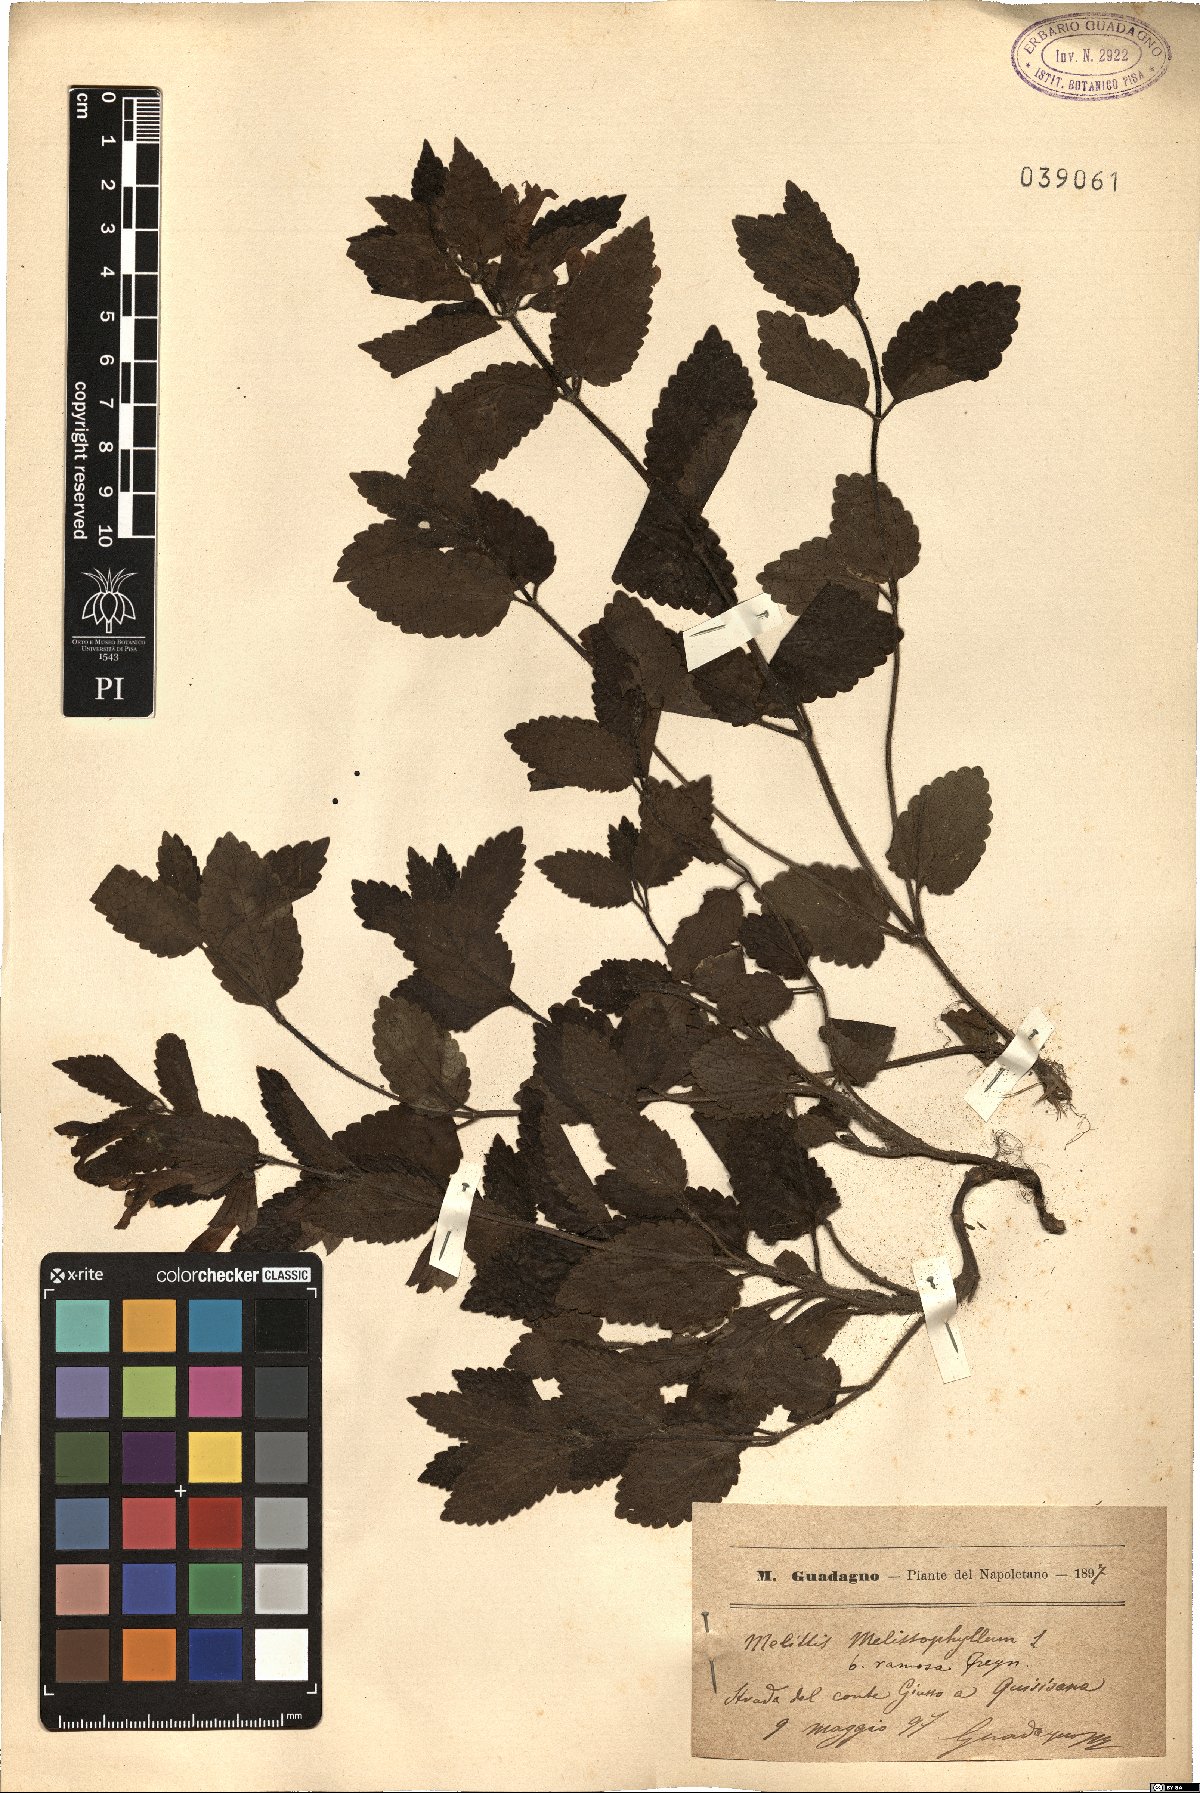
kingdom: Plantae
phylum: Tracheophyta
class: Magnoliopsida
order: Lamiales
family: Lamiaceae
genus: Melittis
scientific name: Melittis melissophyllum
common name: Bastard balm
